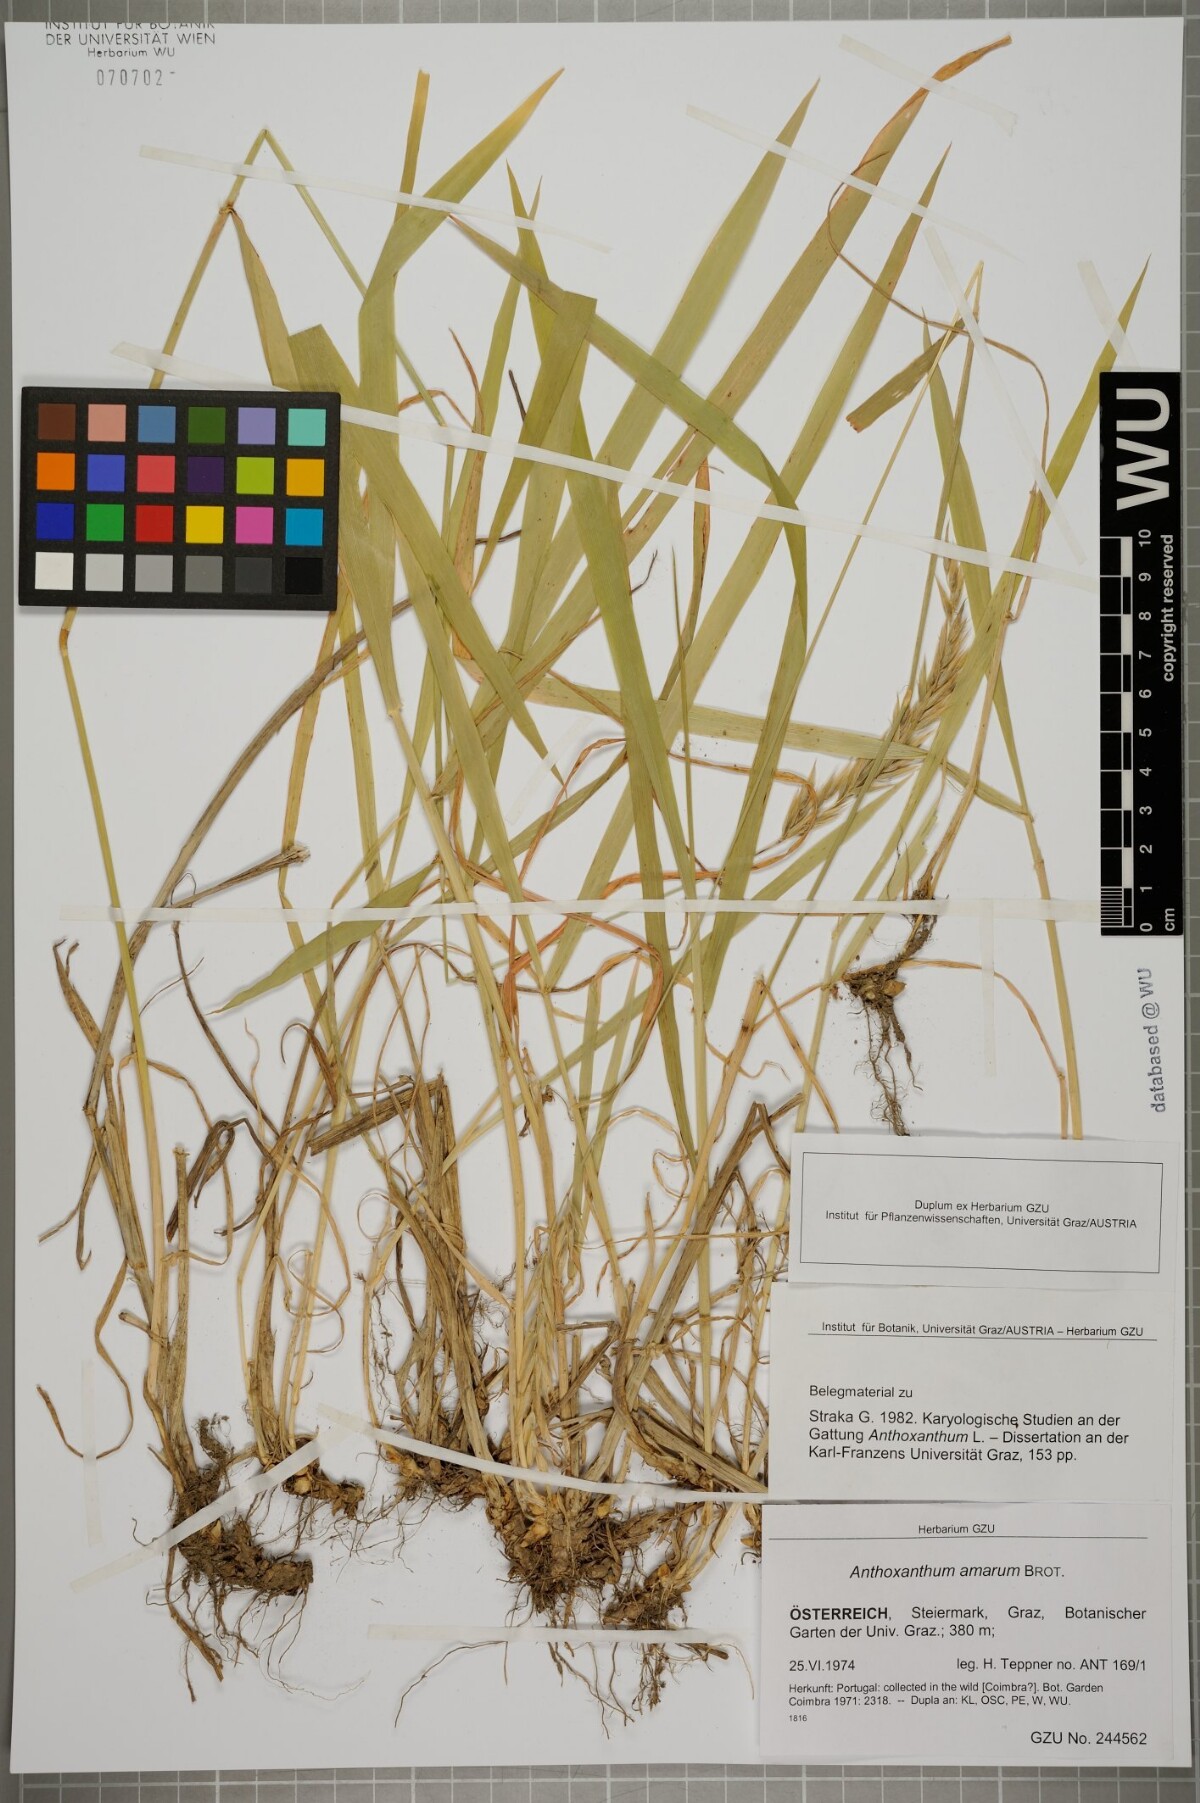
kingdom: Plantae
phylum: Tracheophyta
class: Liliopsida
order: Poales
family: Poaceae
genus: Anthoxanthum
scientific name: Anthoxanthum amarum
